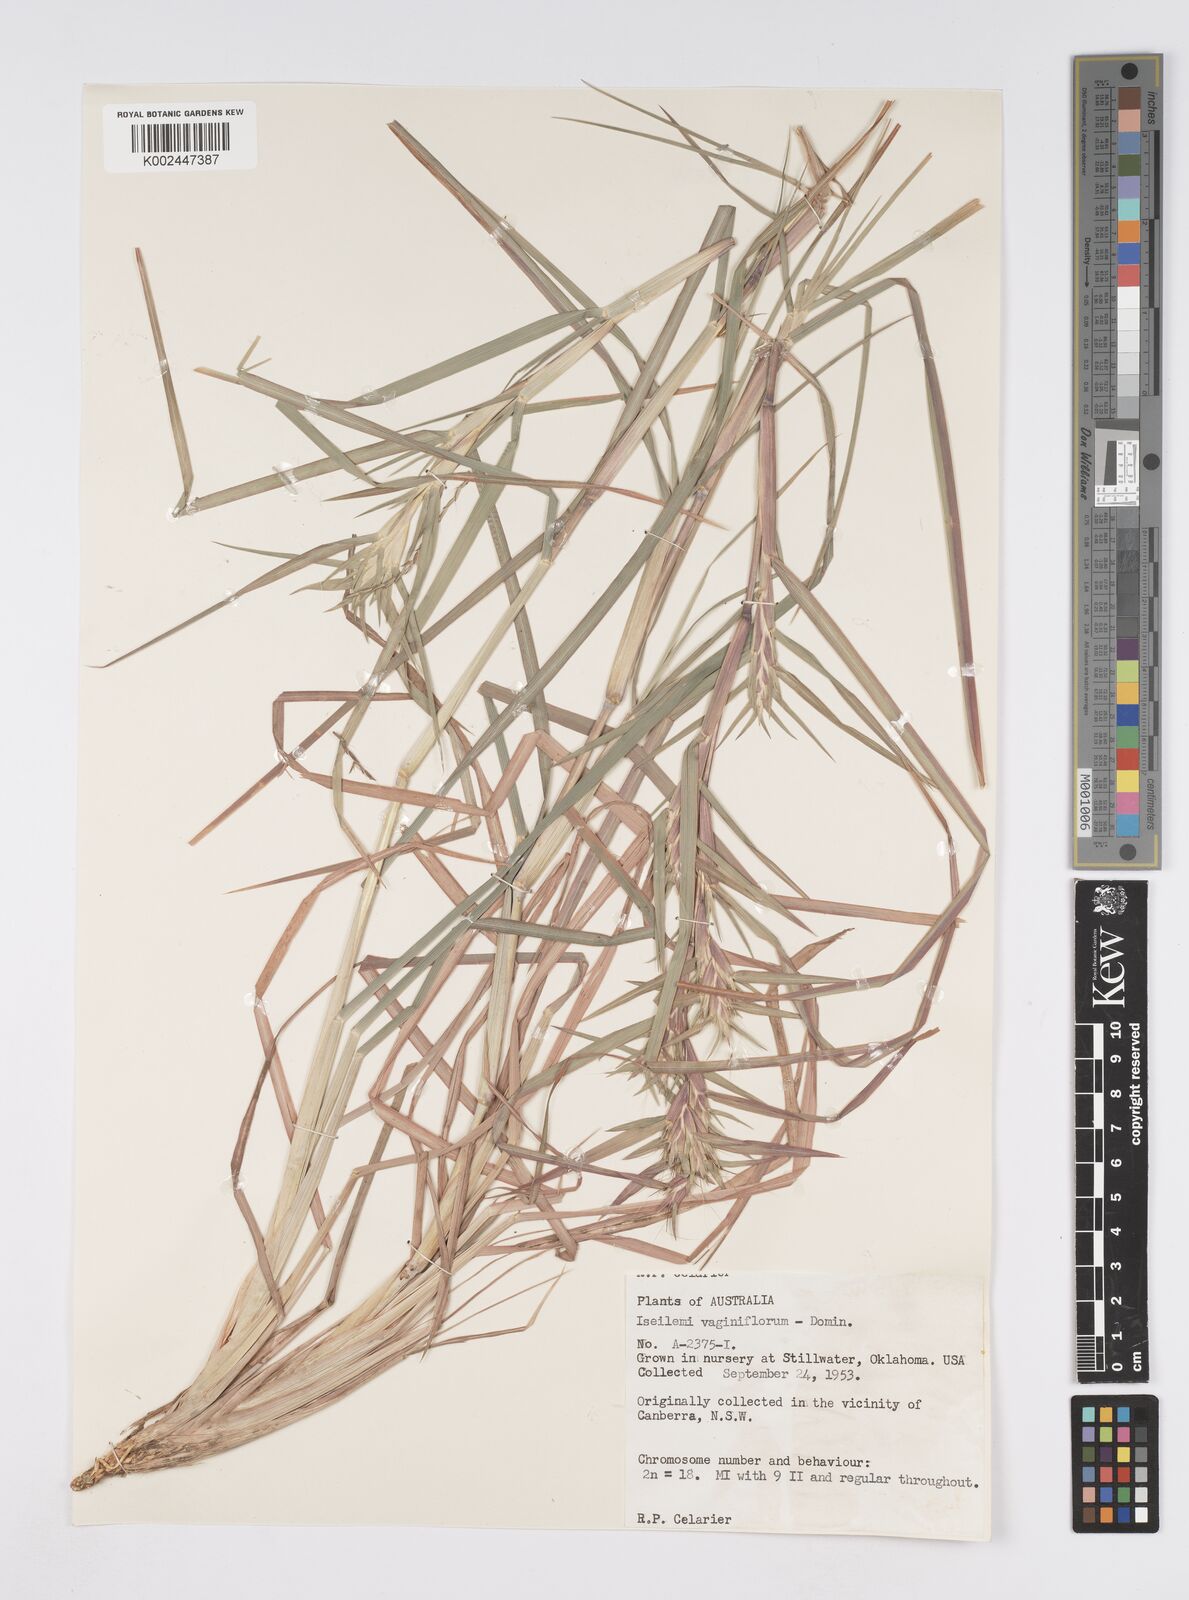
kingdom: Plantae
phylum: Tracheophyta
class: Liliopsida
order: Poales
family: Poaceae
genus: Iseilema
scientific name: Iseilema vaginiflorum
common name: Red flinders grass
